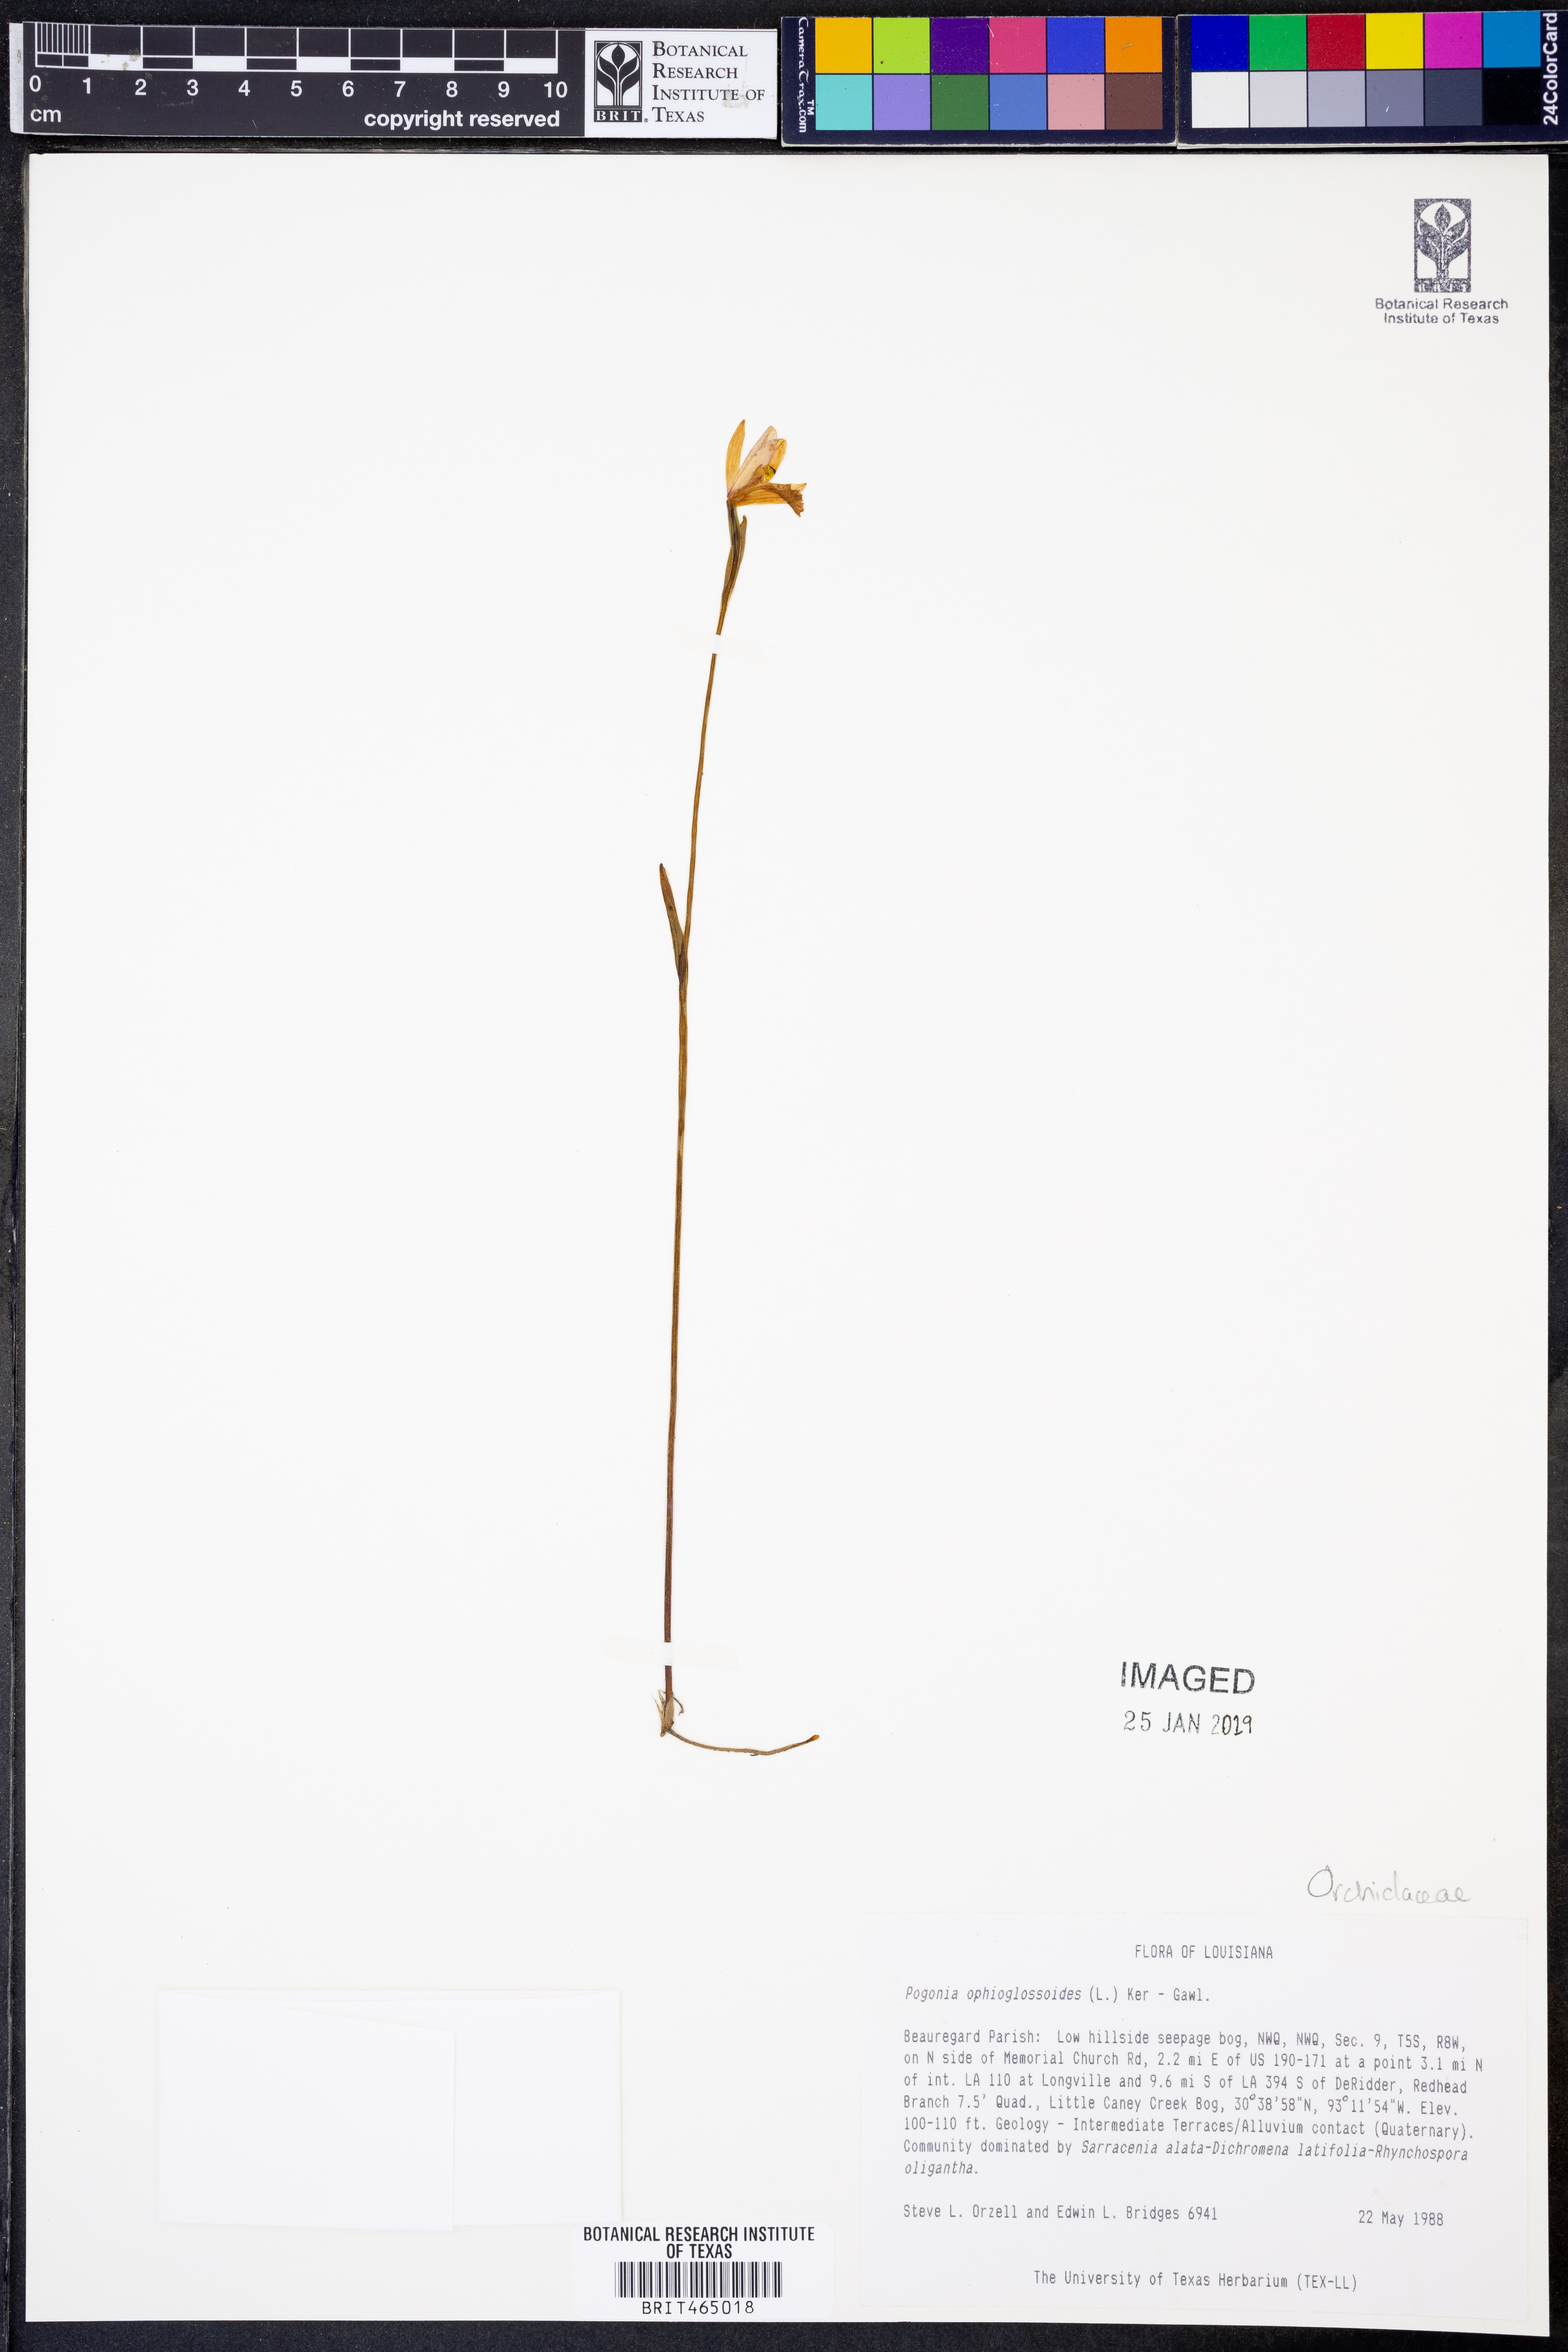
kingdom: Plantae
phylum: Tracheophyta
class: Liliopsida
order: Asparagales
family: Orchidaceae
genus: Pogonia
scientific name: Pogonia ophioglossoides
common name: Rose pogonia
